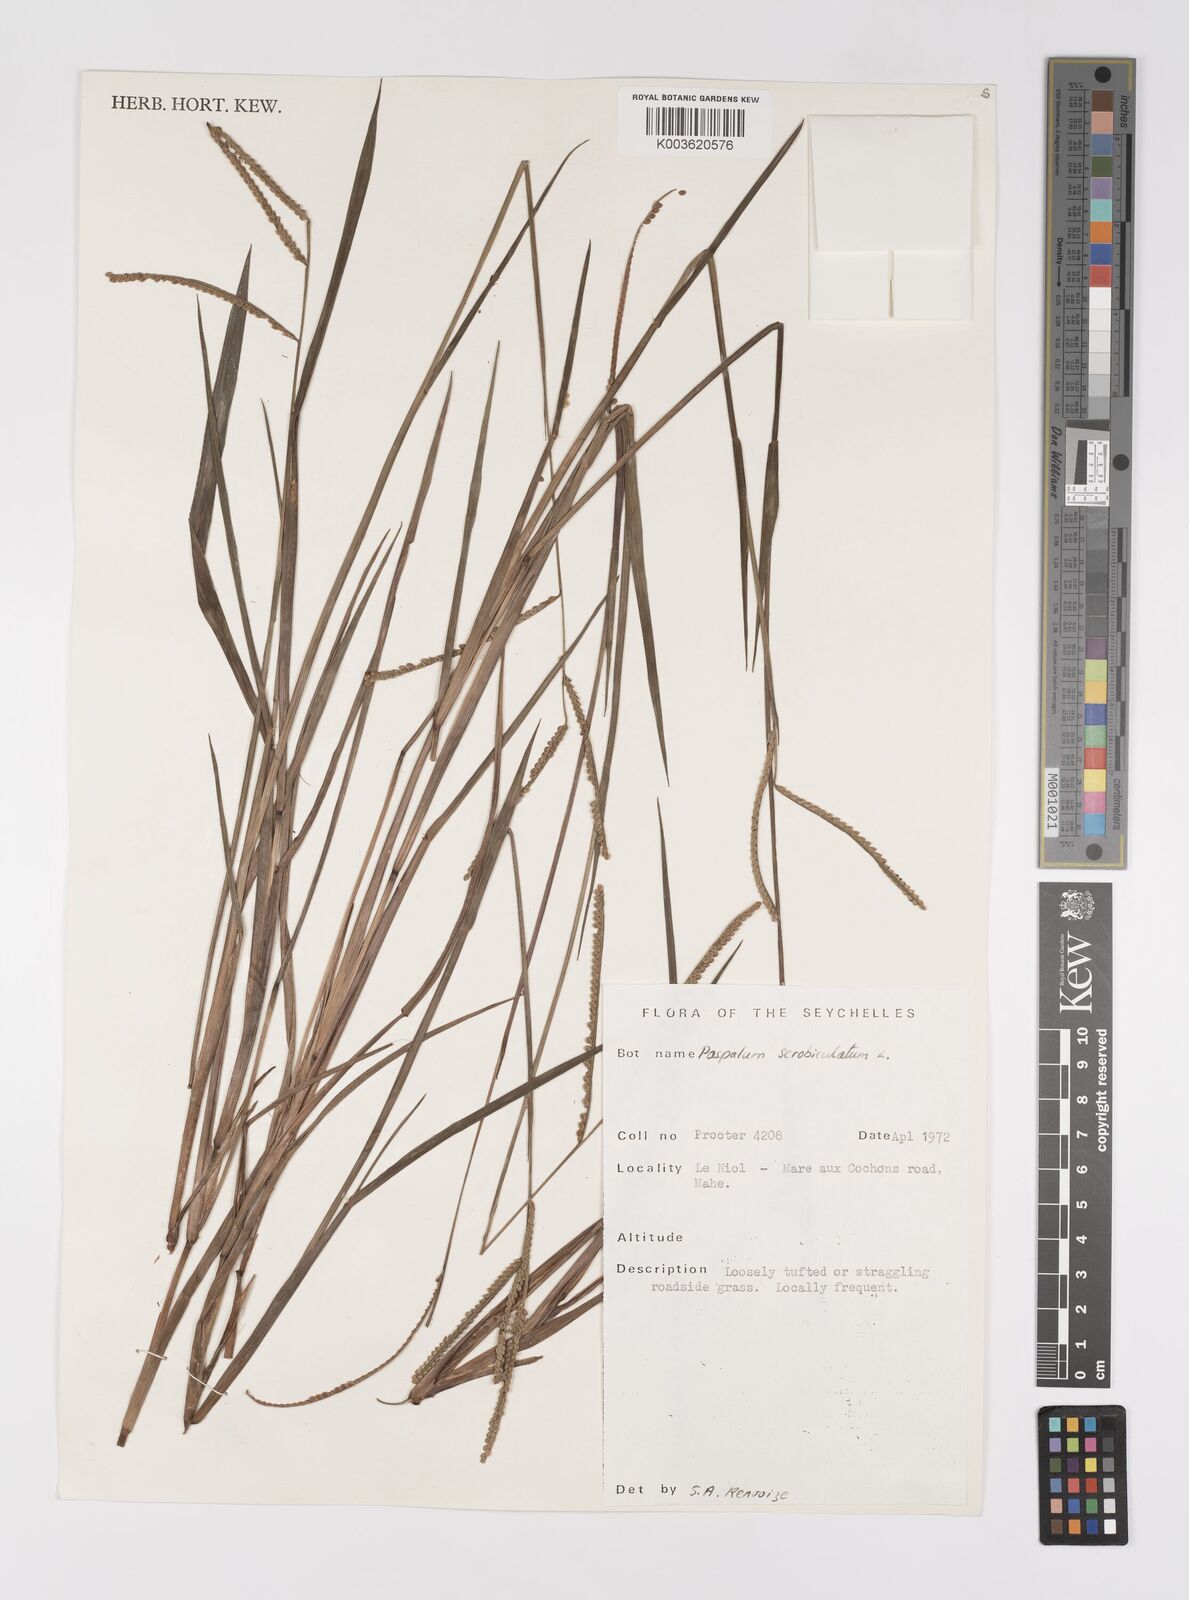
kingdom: Plantae
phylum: Tracheophyta
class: Liliopsida
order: Poales
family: Poaceae
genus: Paspalum
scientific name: Paspalum scrobiculatum
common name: Kodo millet
